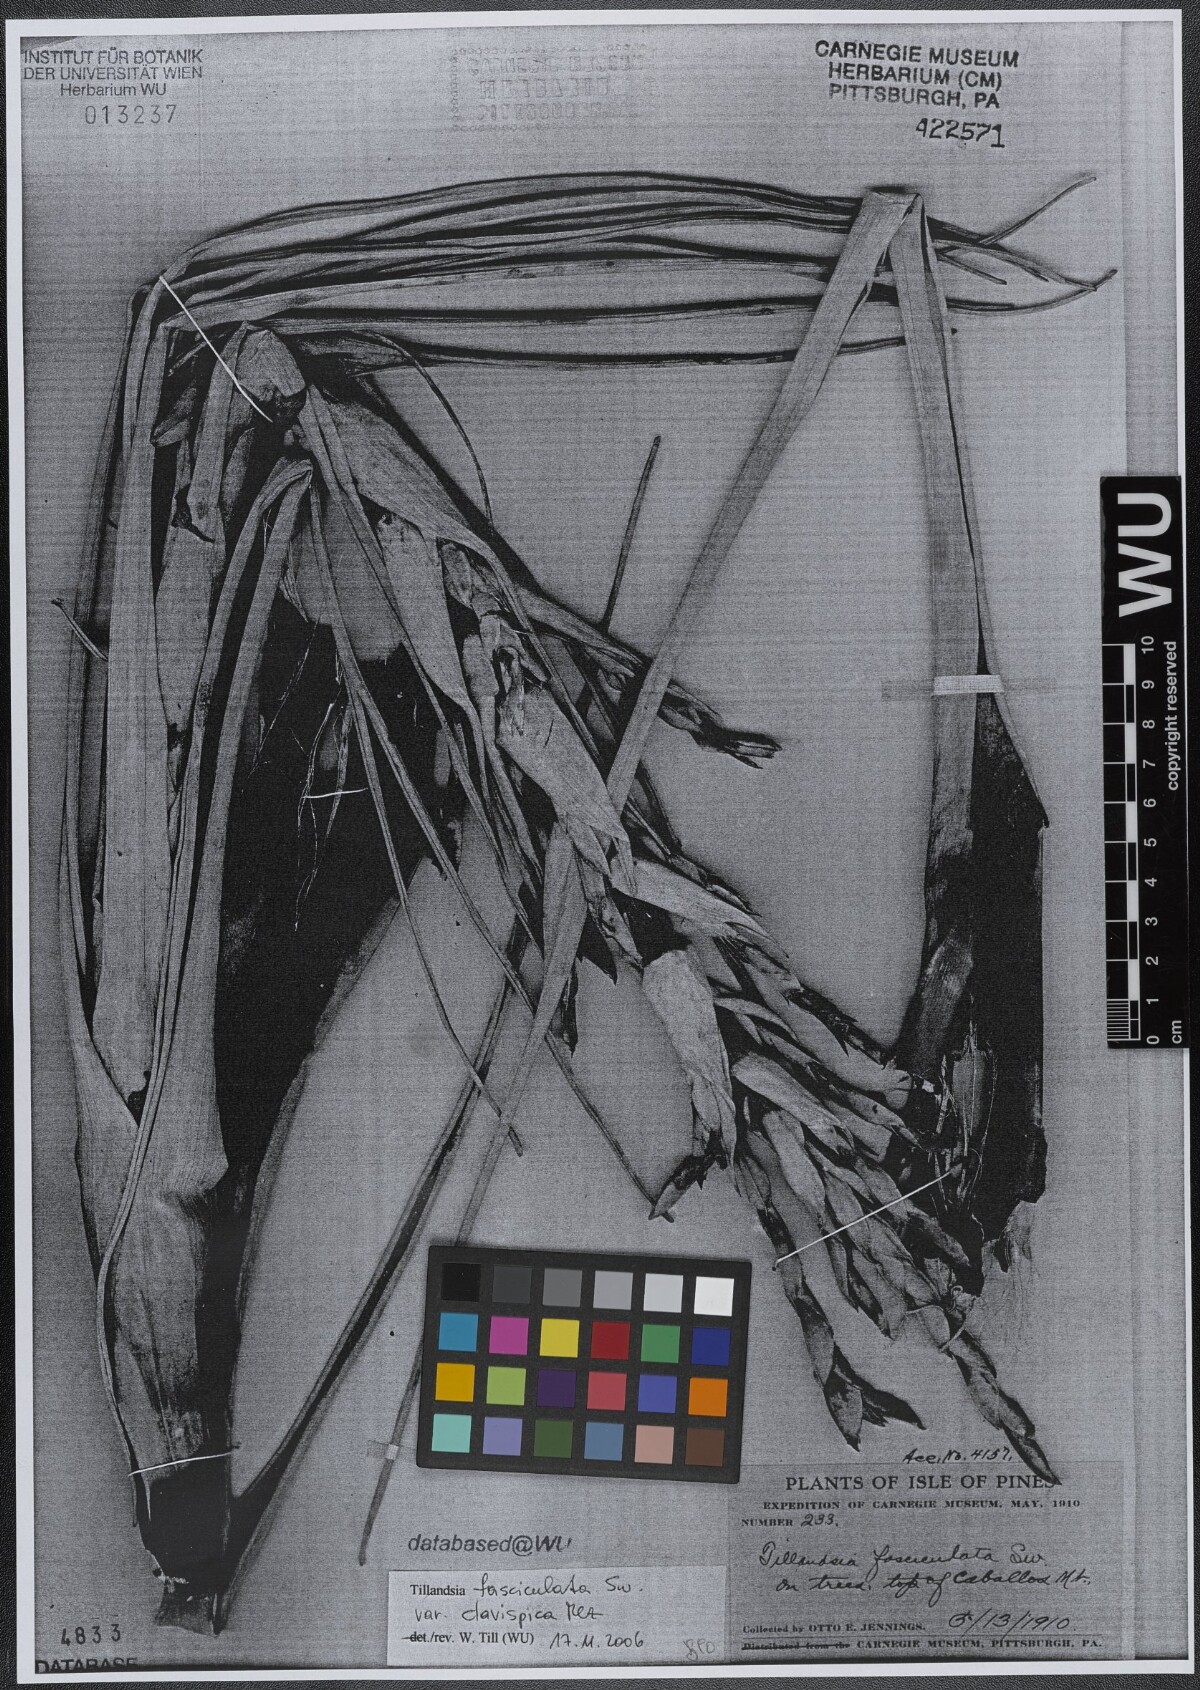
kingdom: Plantae
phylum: Tracheophyta
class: Liliopsida
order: Poales
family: Bromeliaceae
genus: Tillandsia
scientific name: Tillandsia fasciculata
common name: Giant airplant
